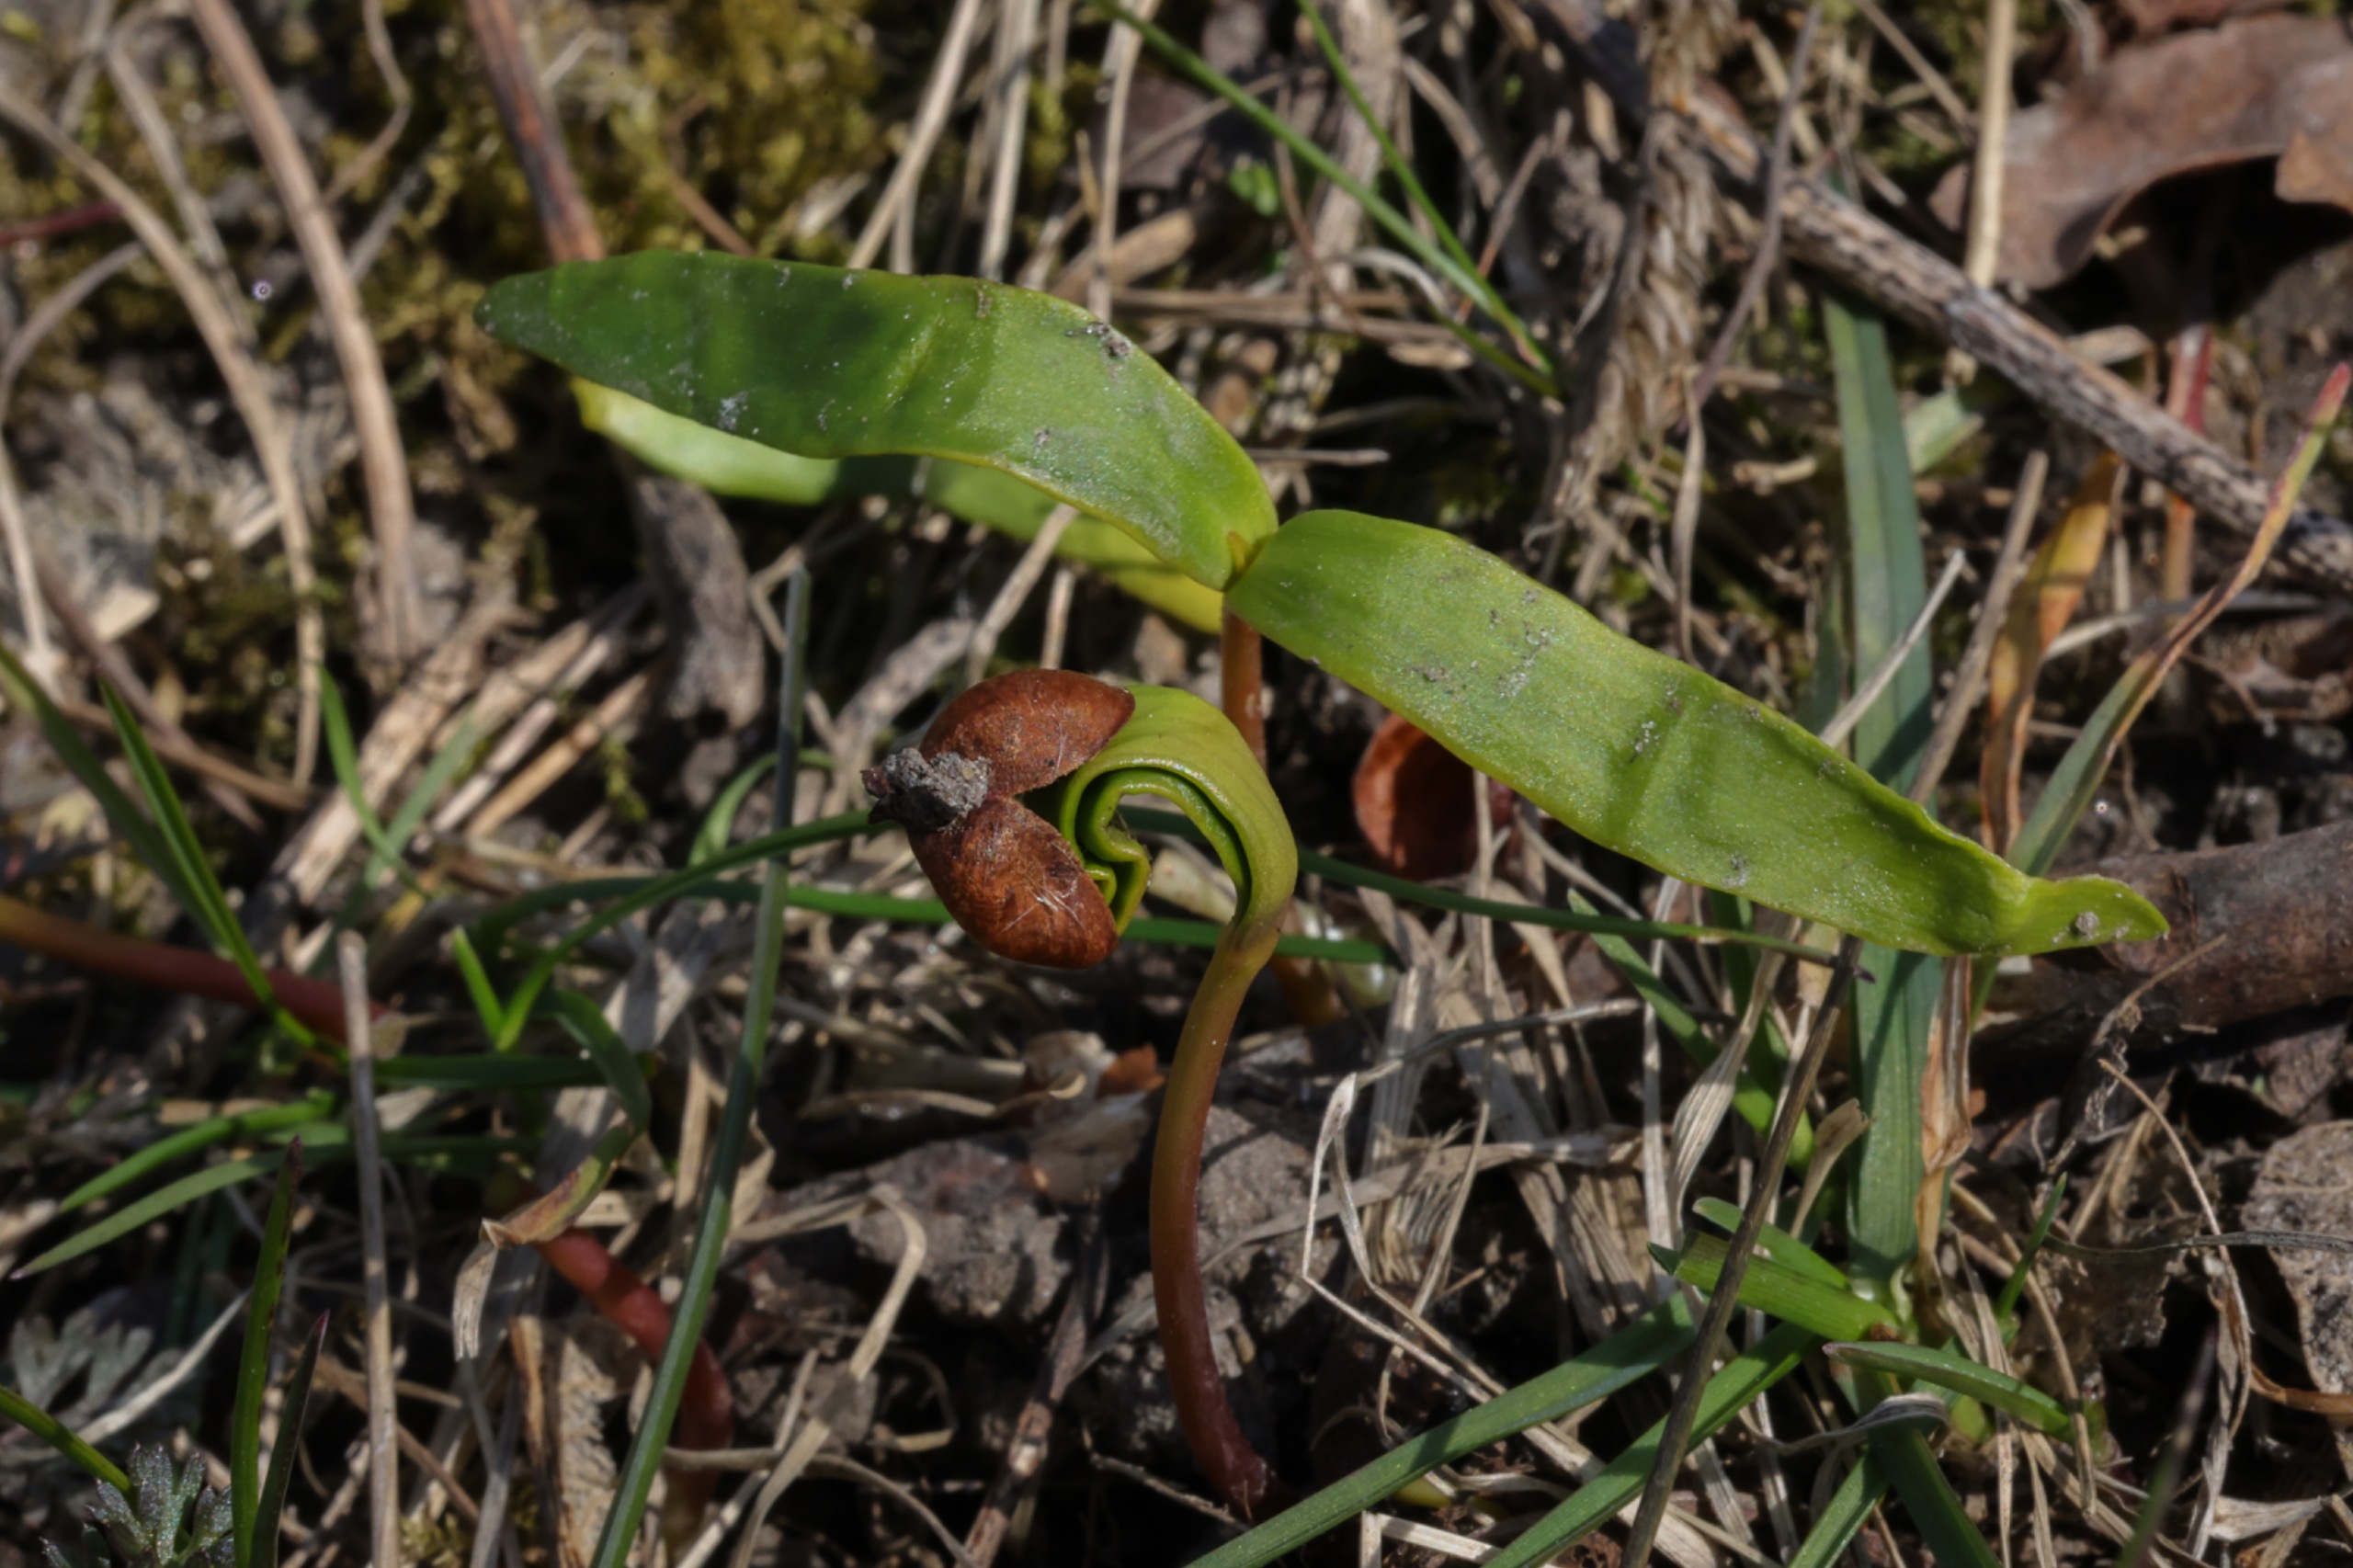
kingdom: Plantae
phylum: Tracheophyta
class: Magnoliopsida
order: Sapindales
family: Sapindaceae
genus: Acer
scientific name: Acer pseudoplatanus
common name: Ahorn
